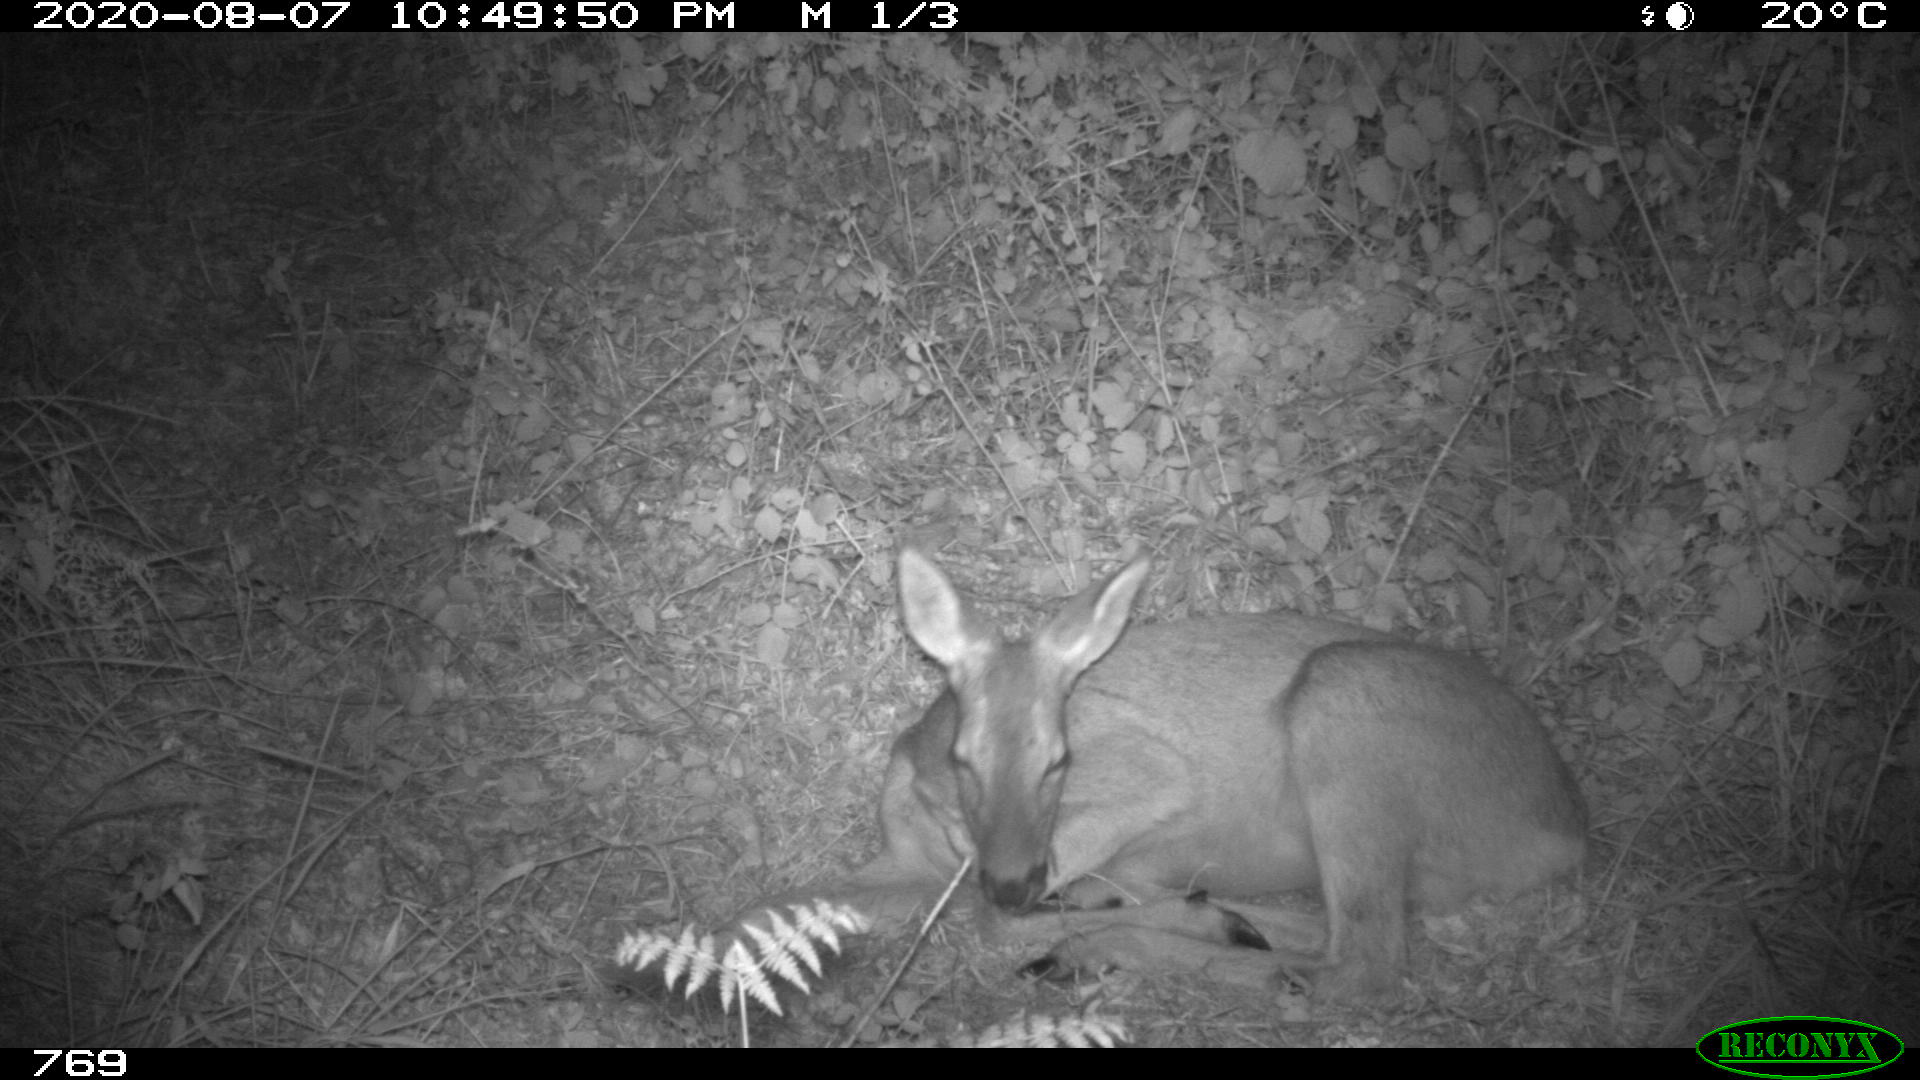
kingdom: Animalia
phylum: Chordata
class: Mammalia
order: Artiodactyla
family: Cervidae
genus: Capreolus
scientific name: Capreolus capreolus
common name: Western roe deer
